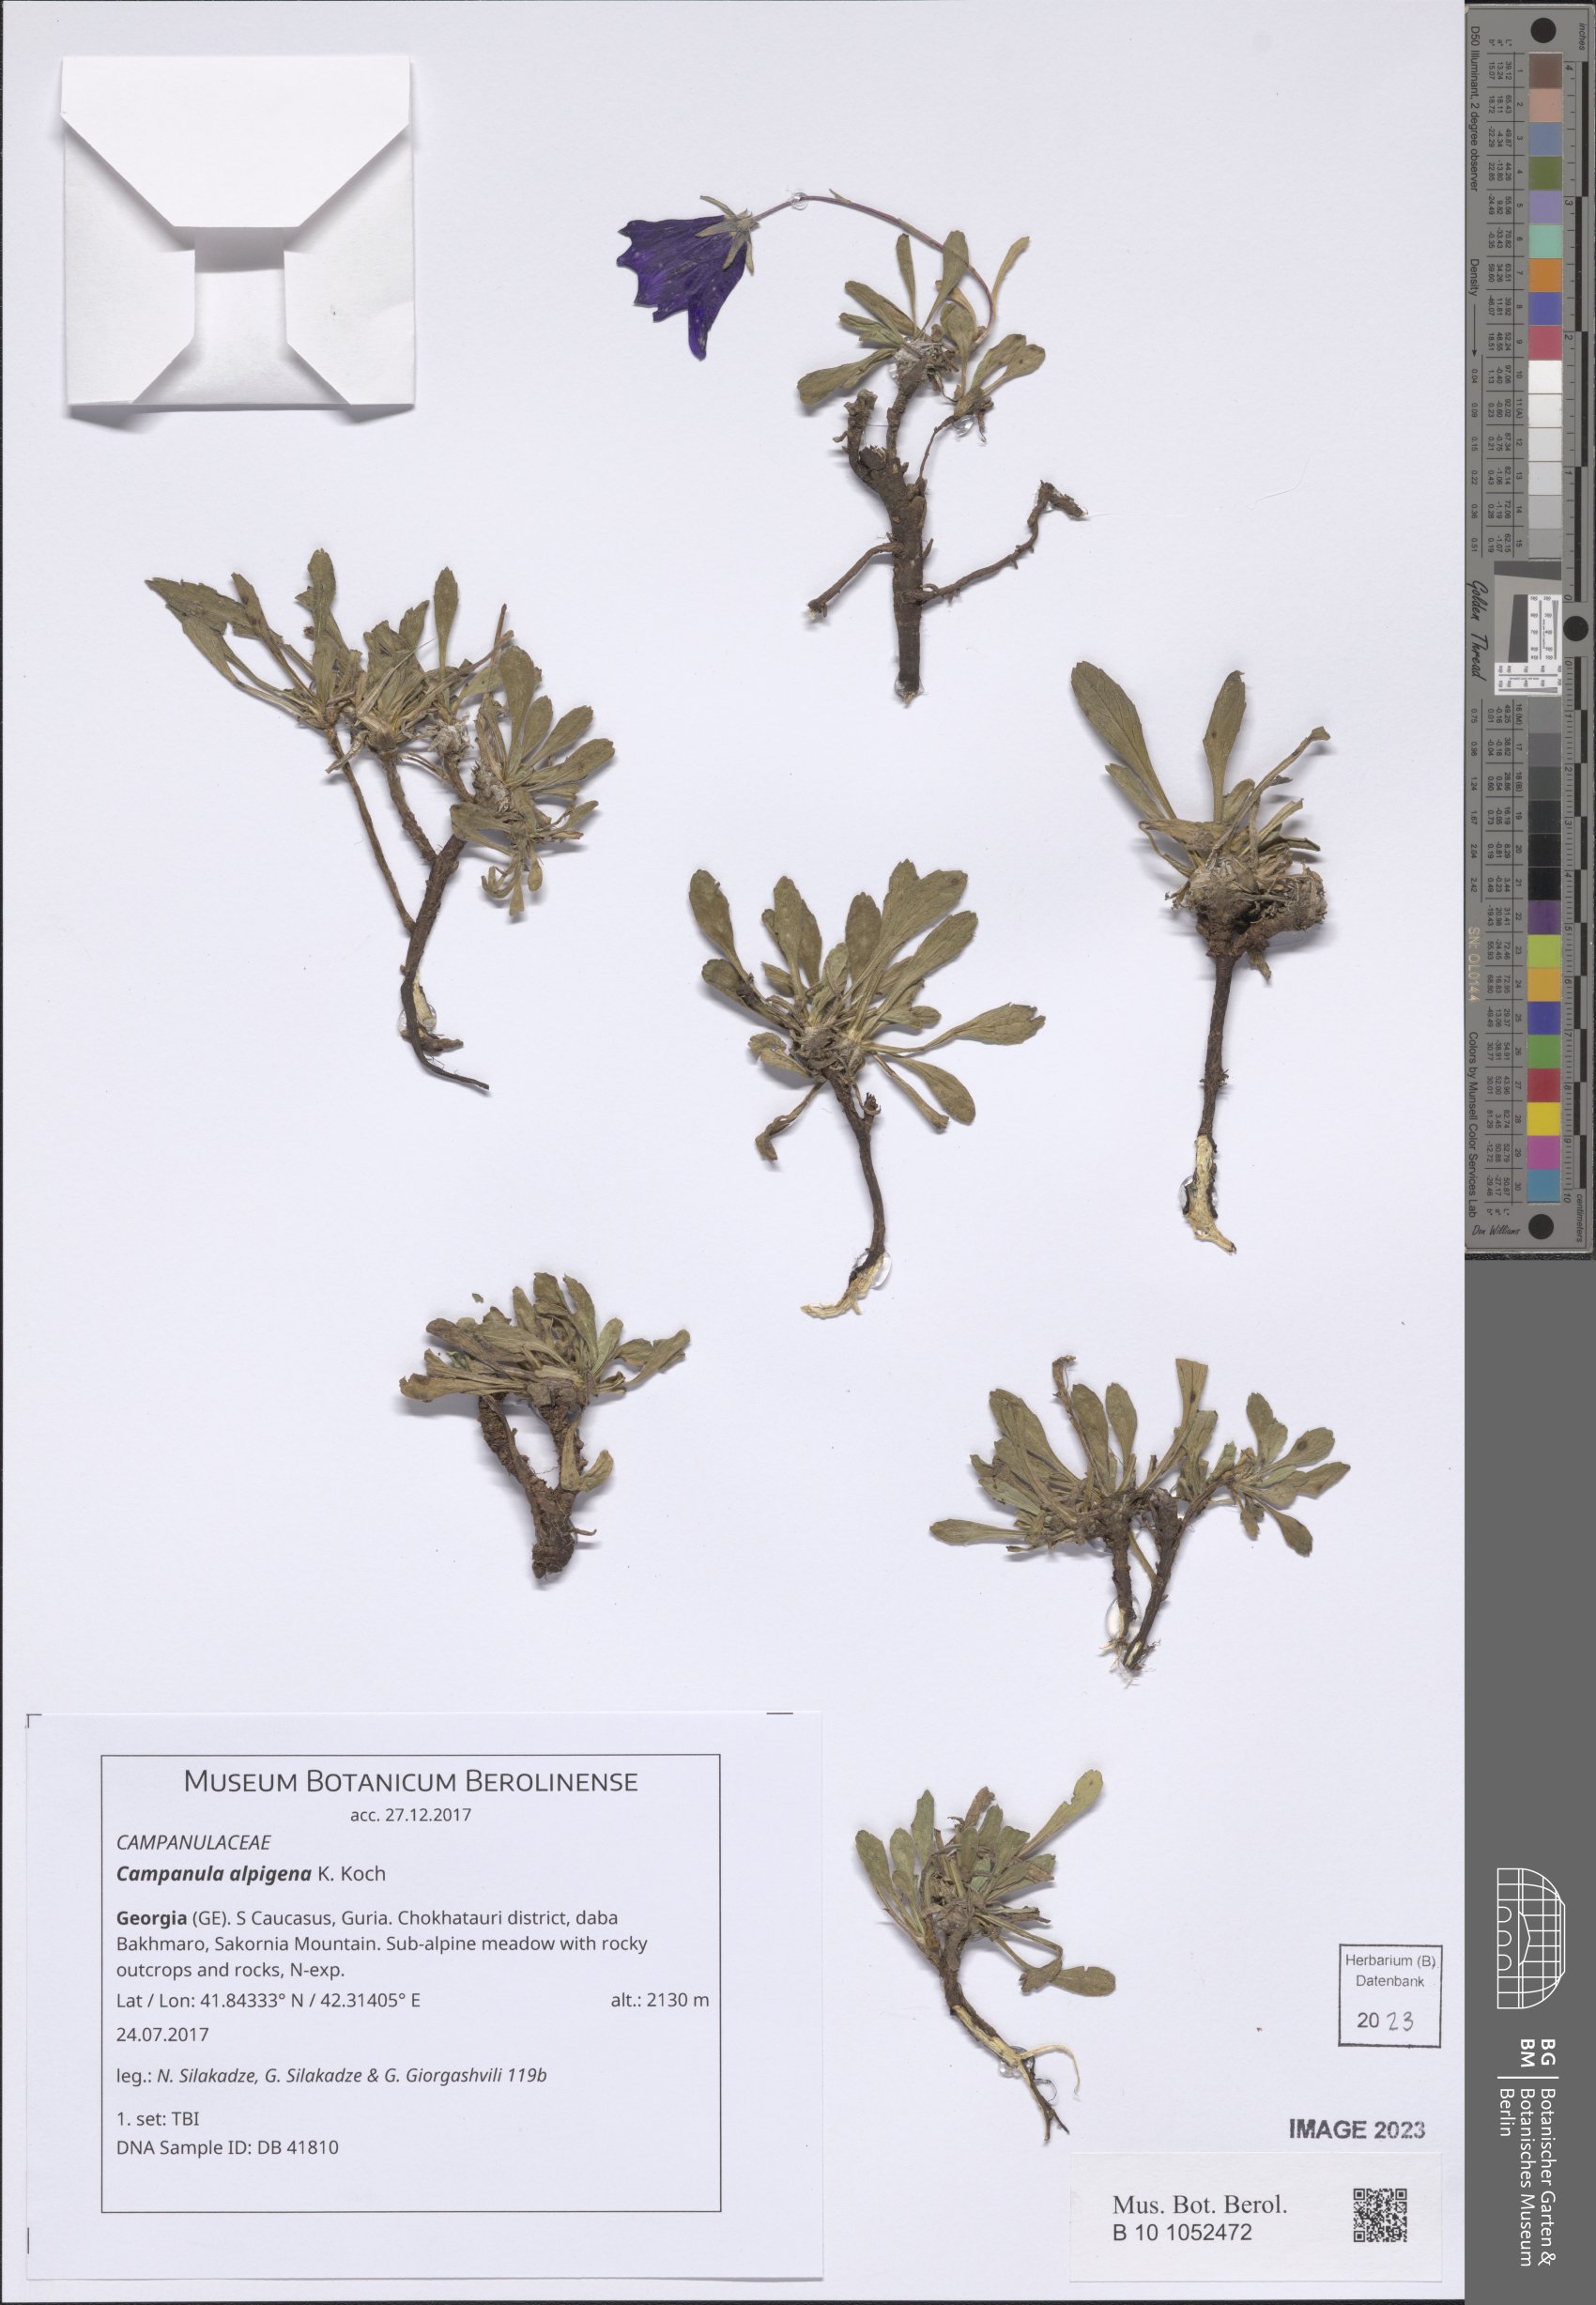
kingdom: Plantae
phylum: Tracheophyta
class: Magnoliopsida
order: Asterales
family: Campanulaceae
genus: Campanula
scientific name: Campanula saxifraga
